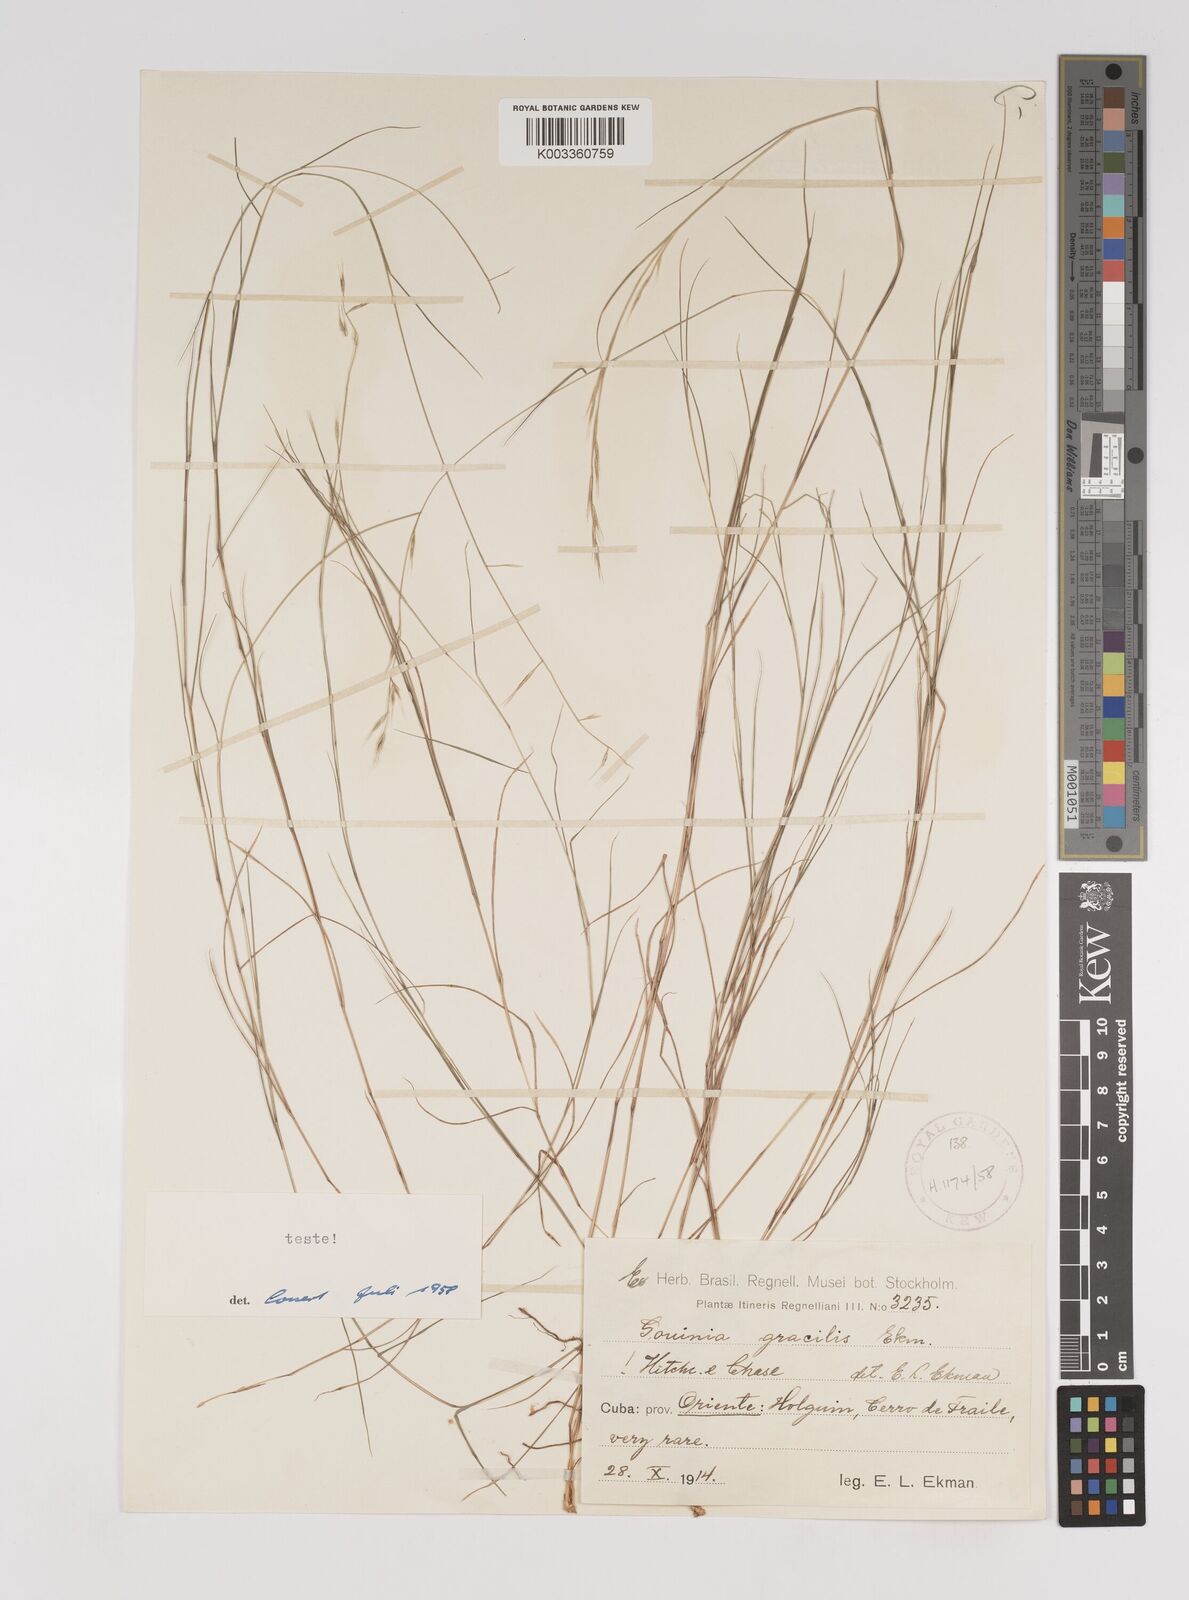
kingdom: Plantae
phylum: Tracheophyta
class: Liliopsida
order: Poales
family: Poaceae
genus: Gouinia
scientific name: Gouinia gracilis
